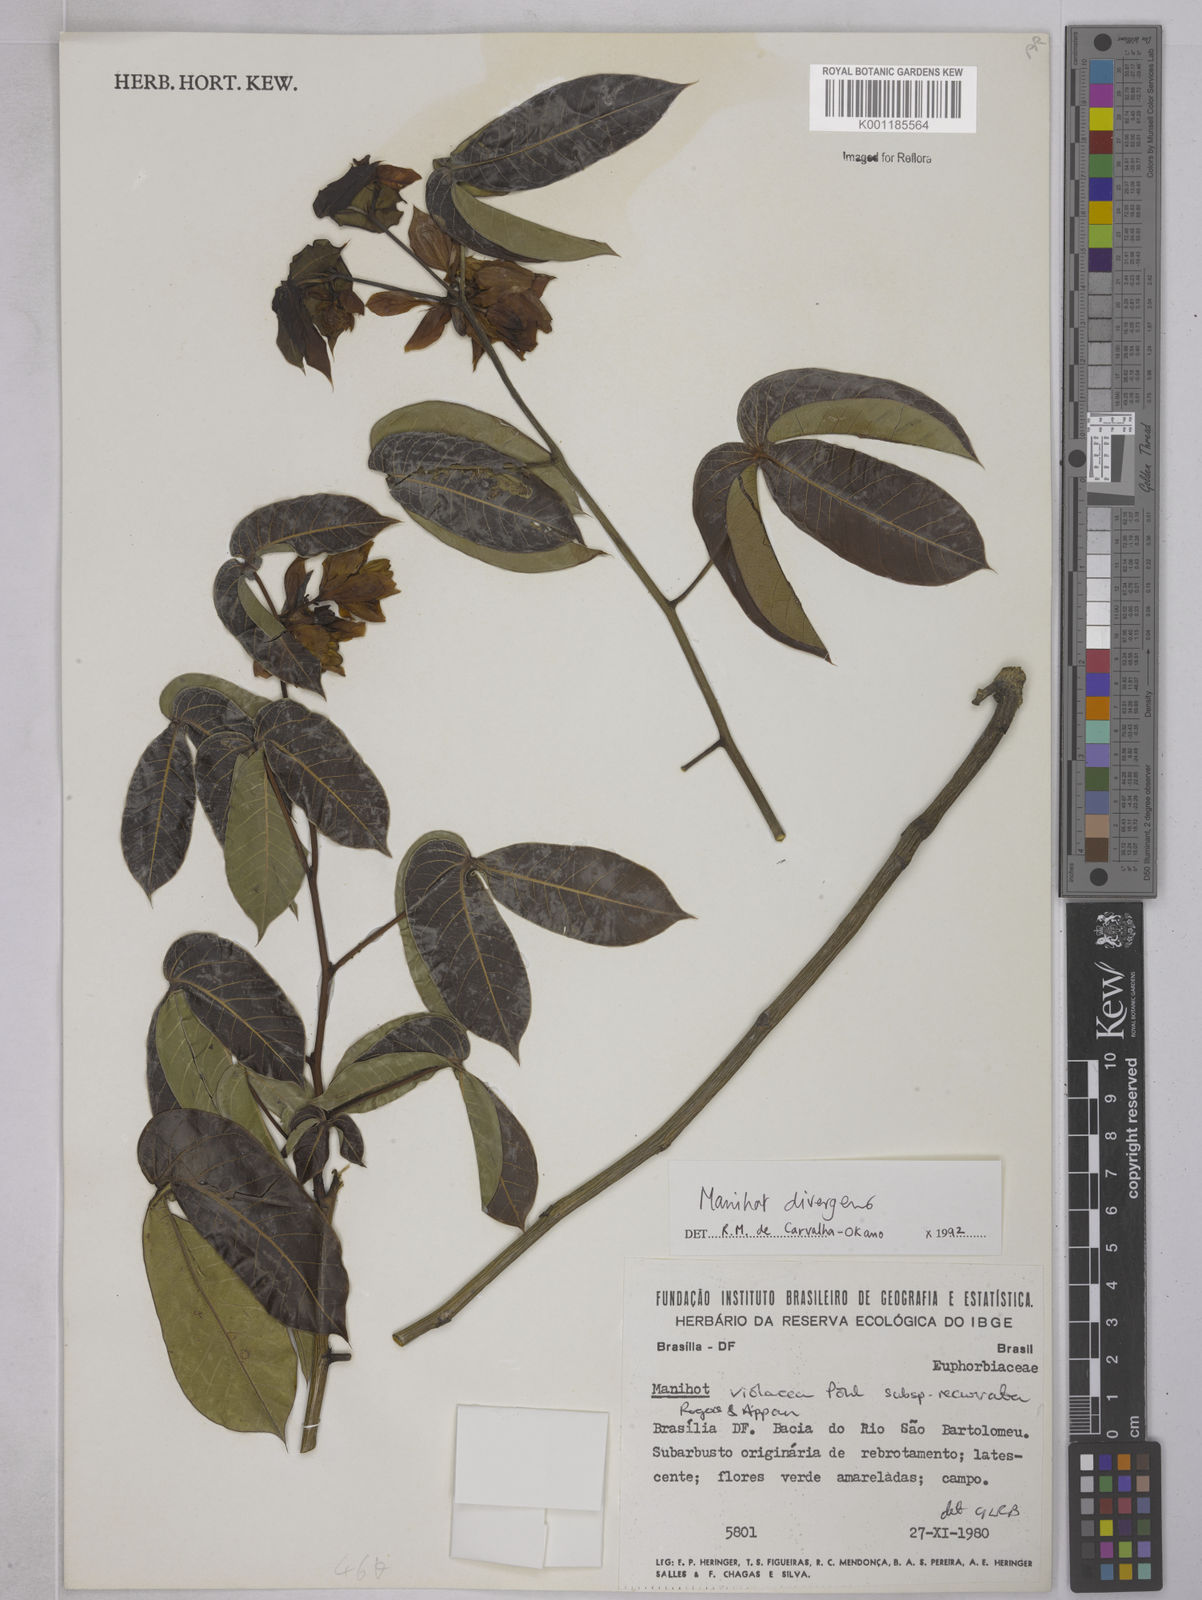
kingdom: Plantae
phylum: Tracheophyta
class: Magnoliopsida
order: Malpighiales
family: Euphorbiaceae
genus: Manihot
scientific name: Manihot divergens
